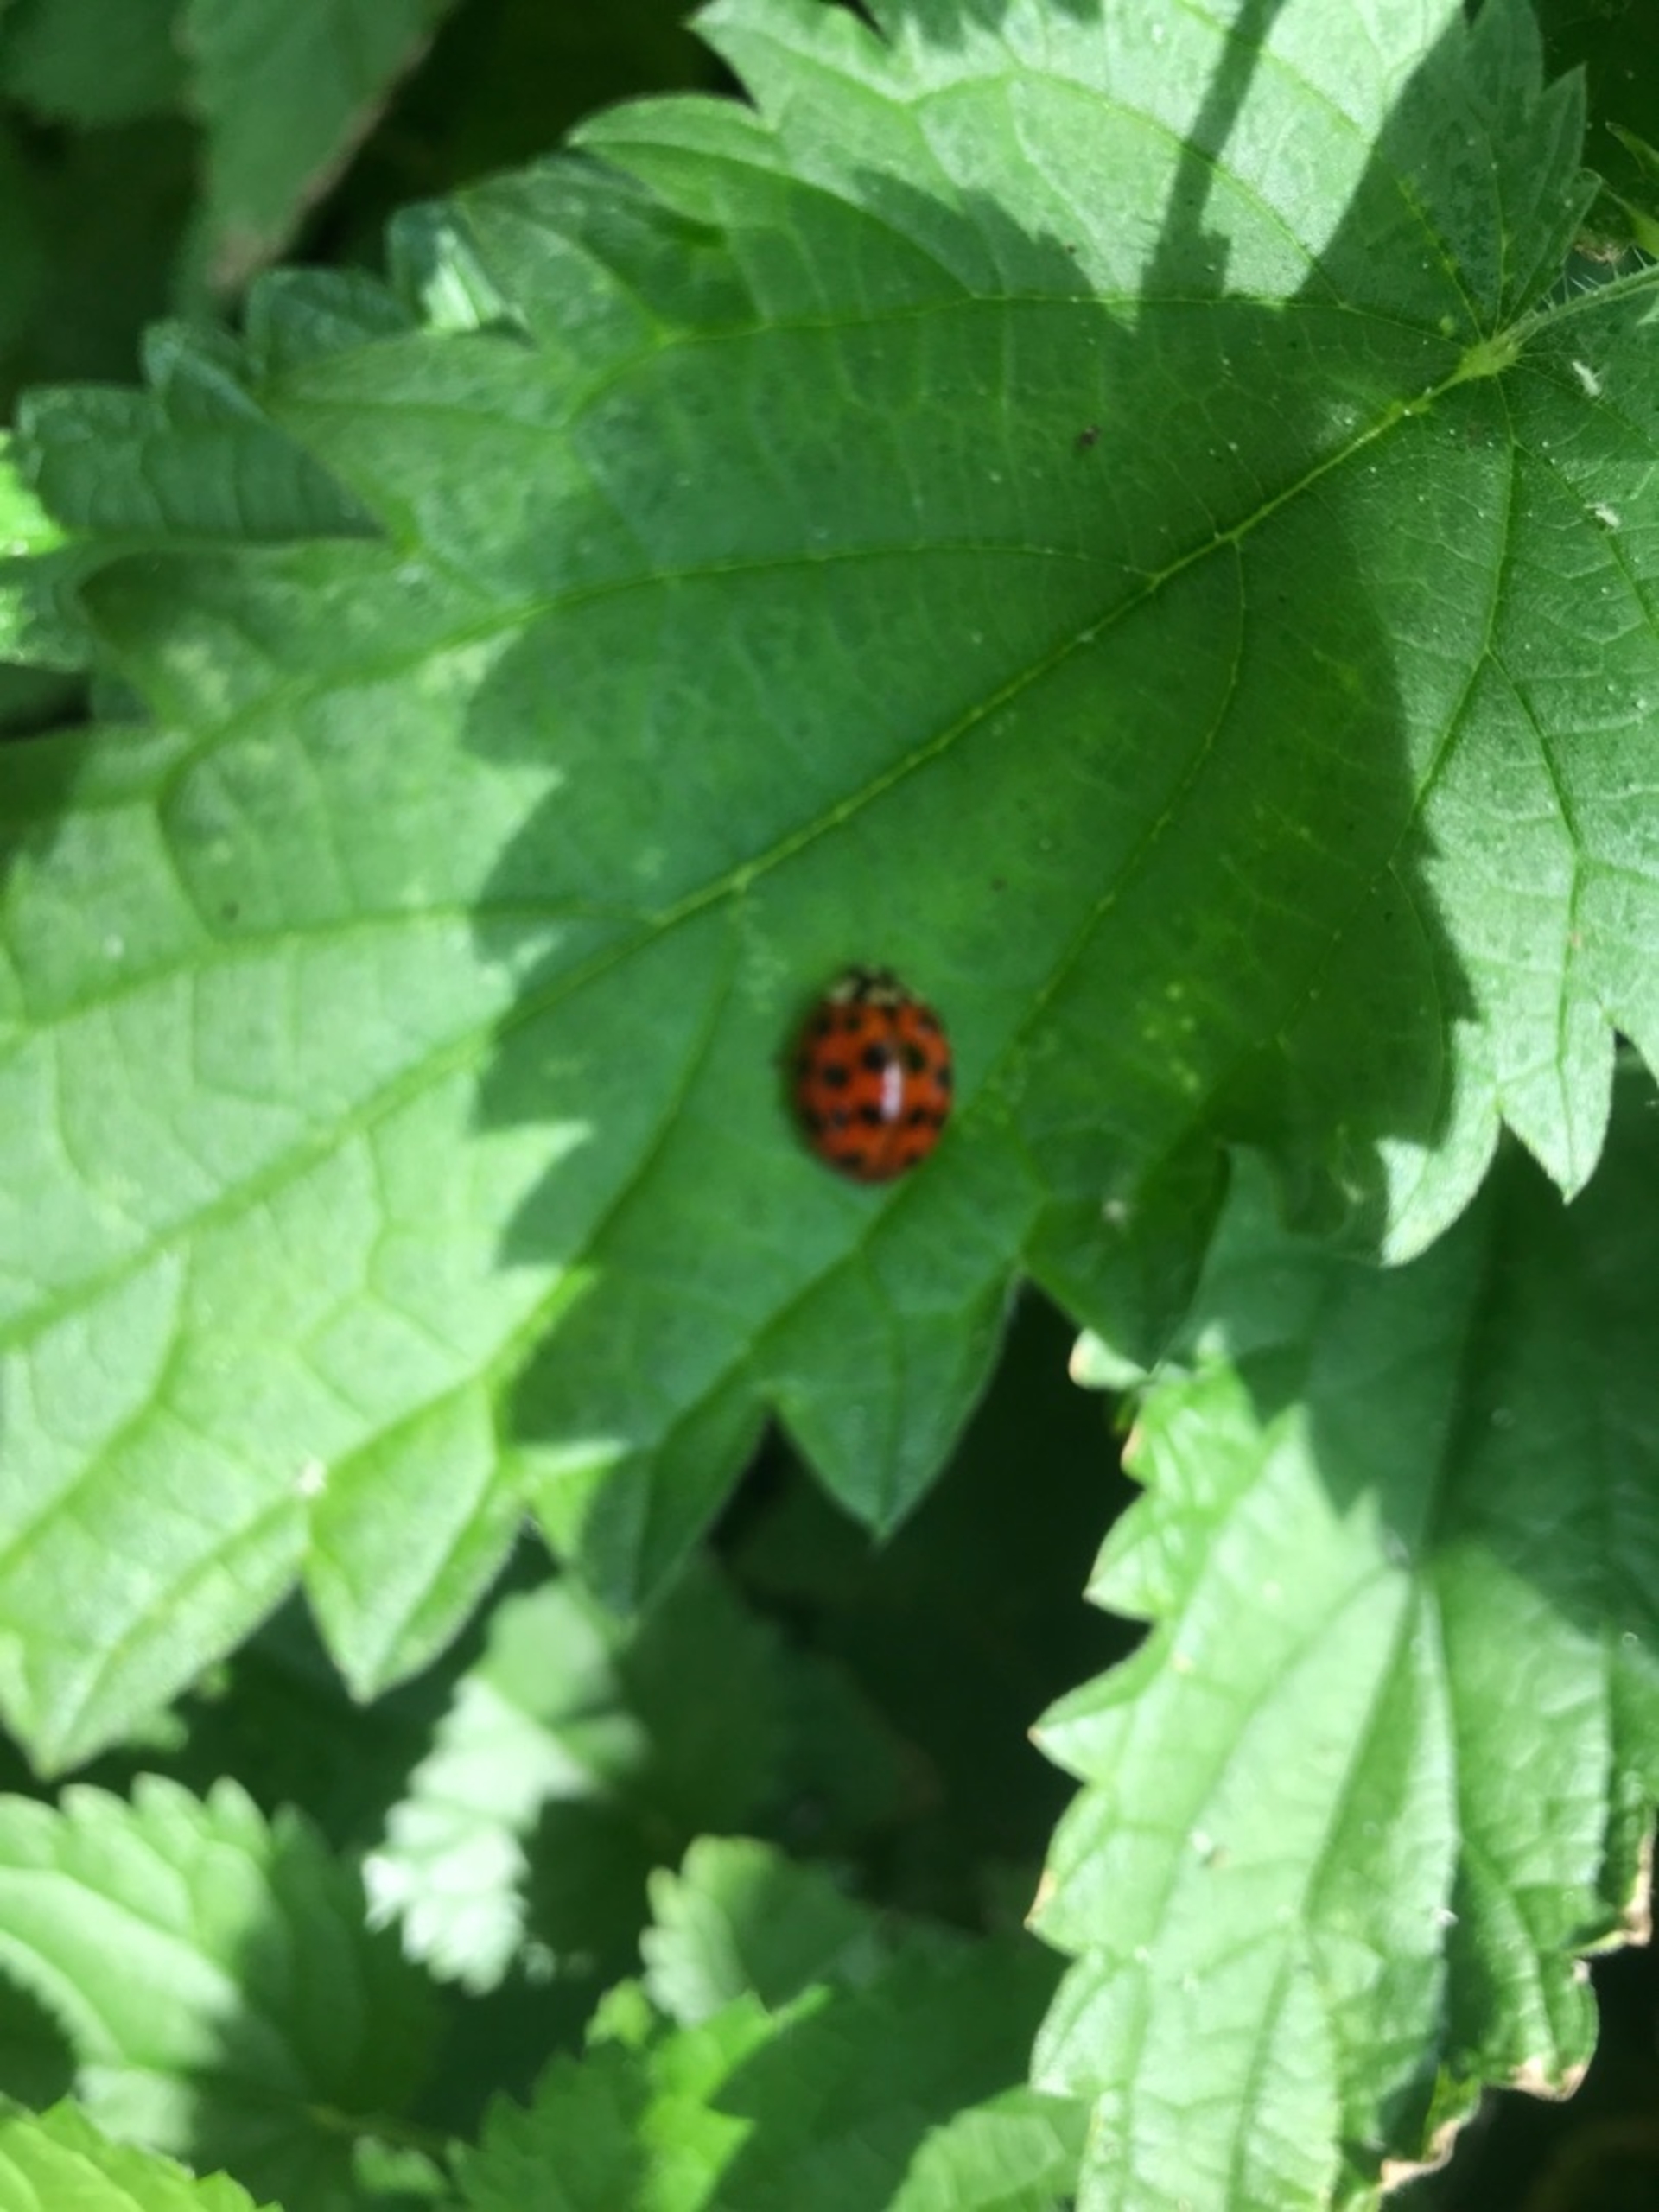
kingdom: Animalia
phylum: Arthropoda
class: Insecta
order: Coleoptera
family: Coccinellidae
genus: Harmonia
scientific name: Harmonia axyridis
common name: Harlekinmariehøne
